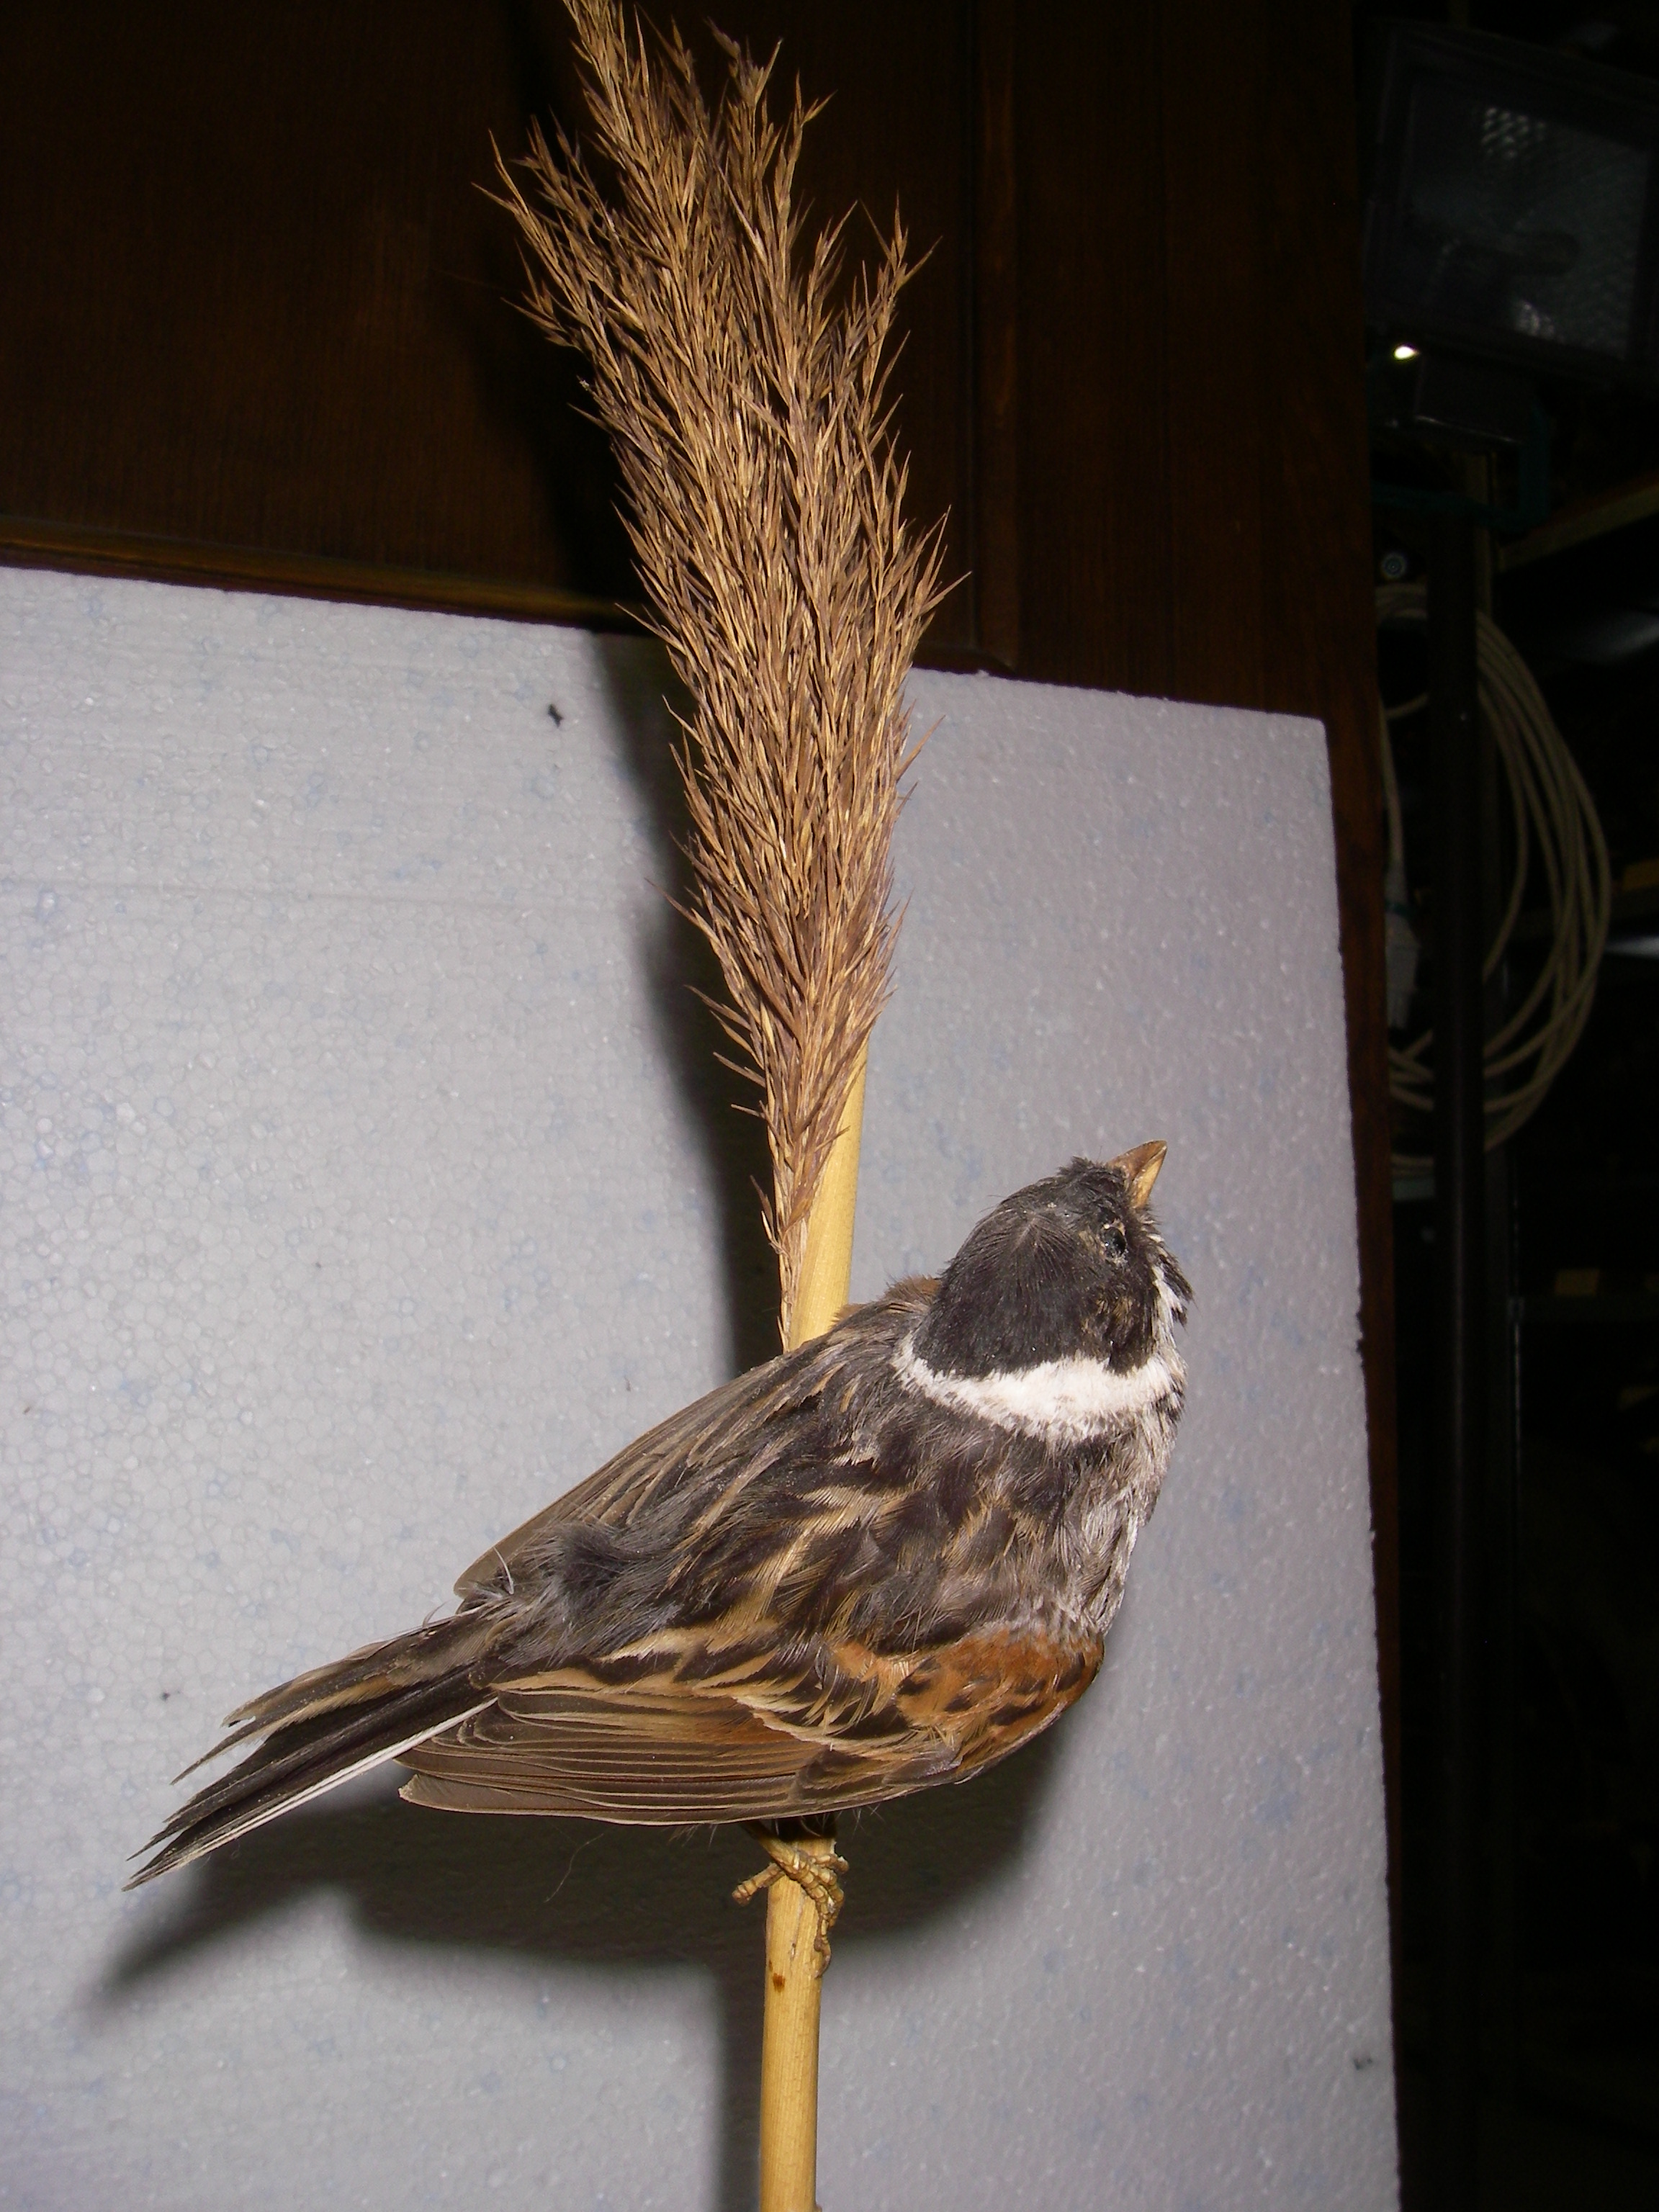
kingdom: Animalia
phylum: Chordata
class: Aves
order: Passeriformes
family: Emberizidae
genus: Emberiza
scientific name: Emberiza schoeniclus
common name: Reed bunting
